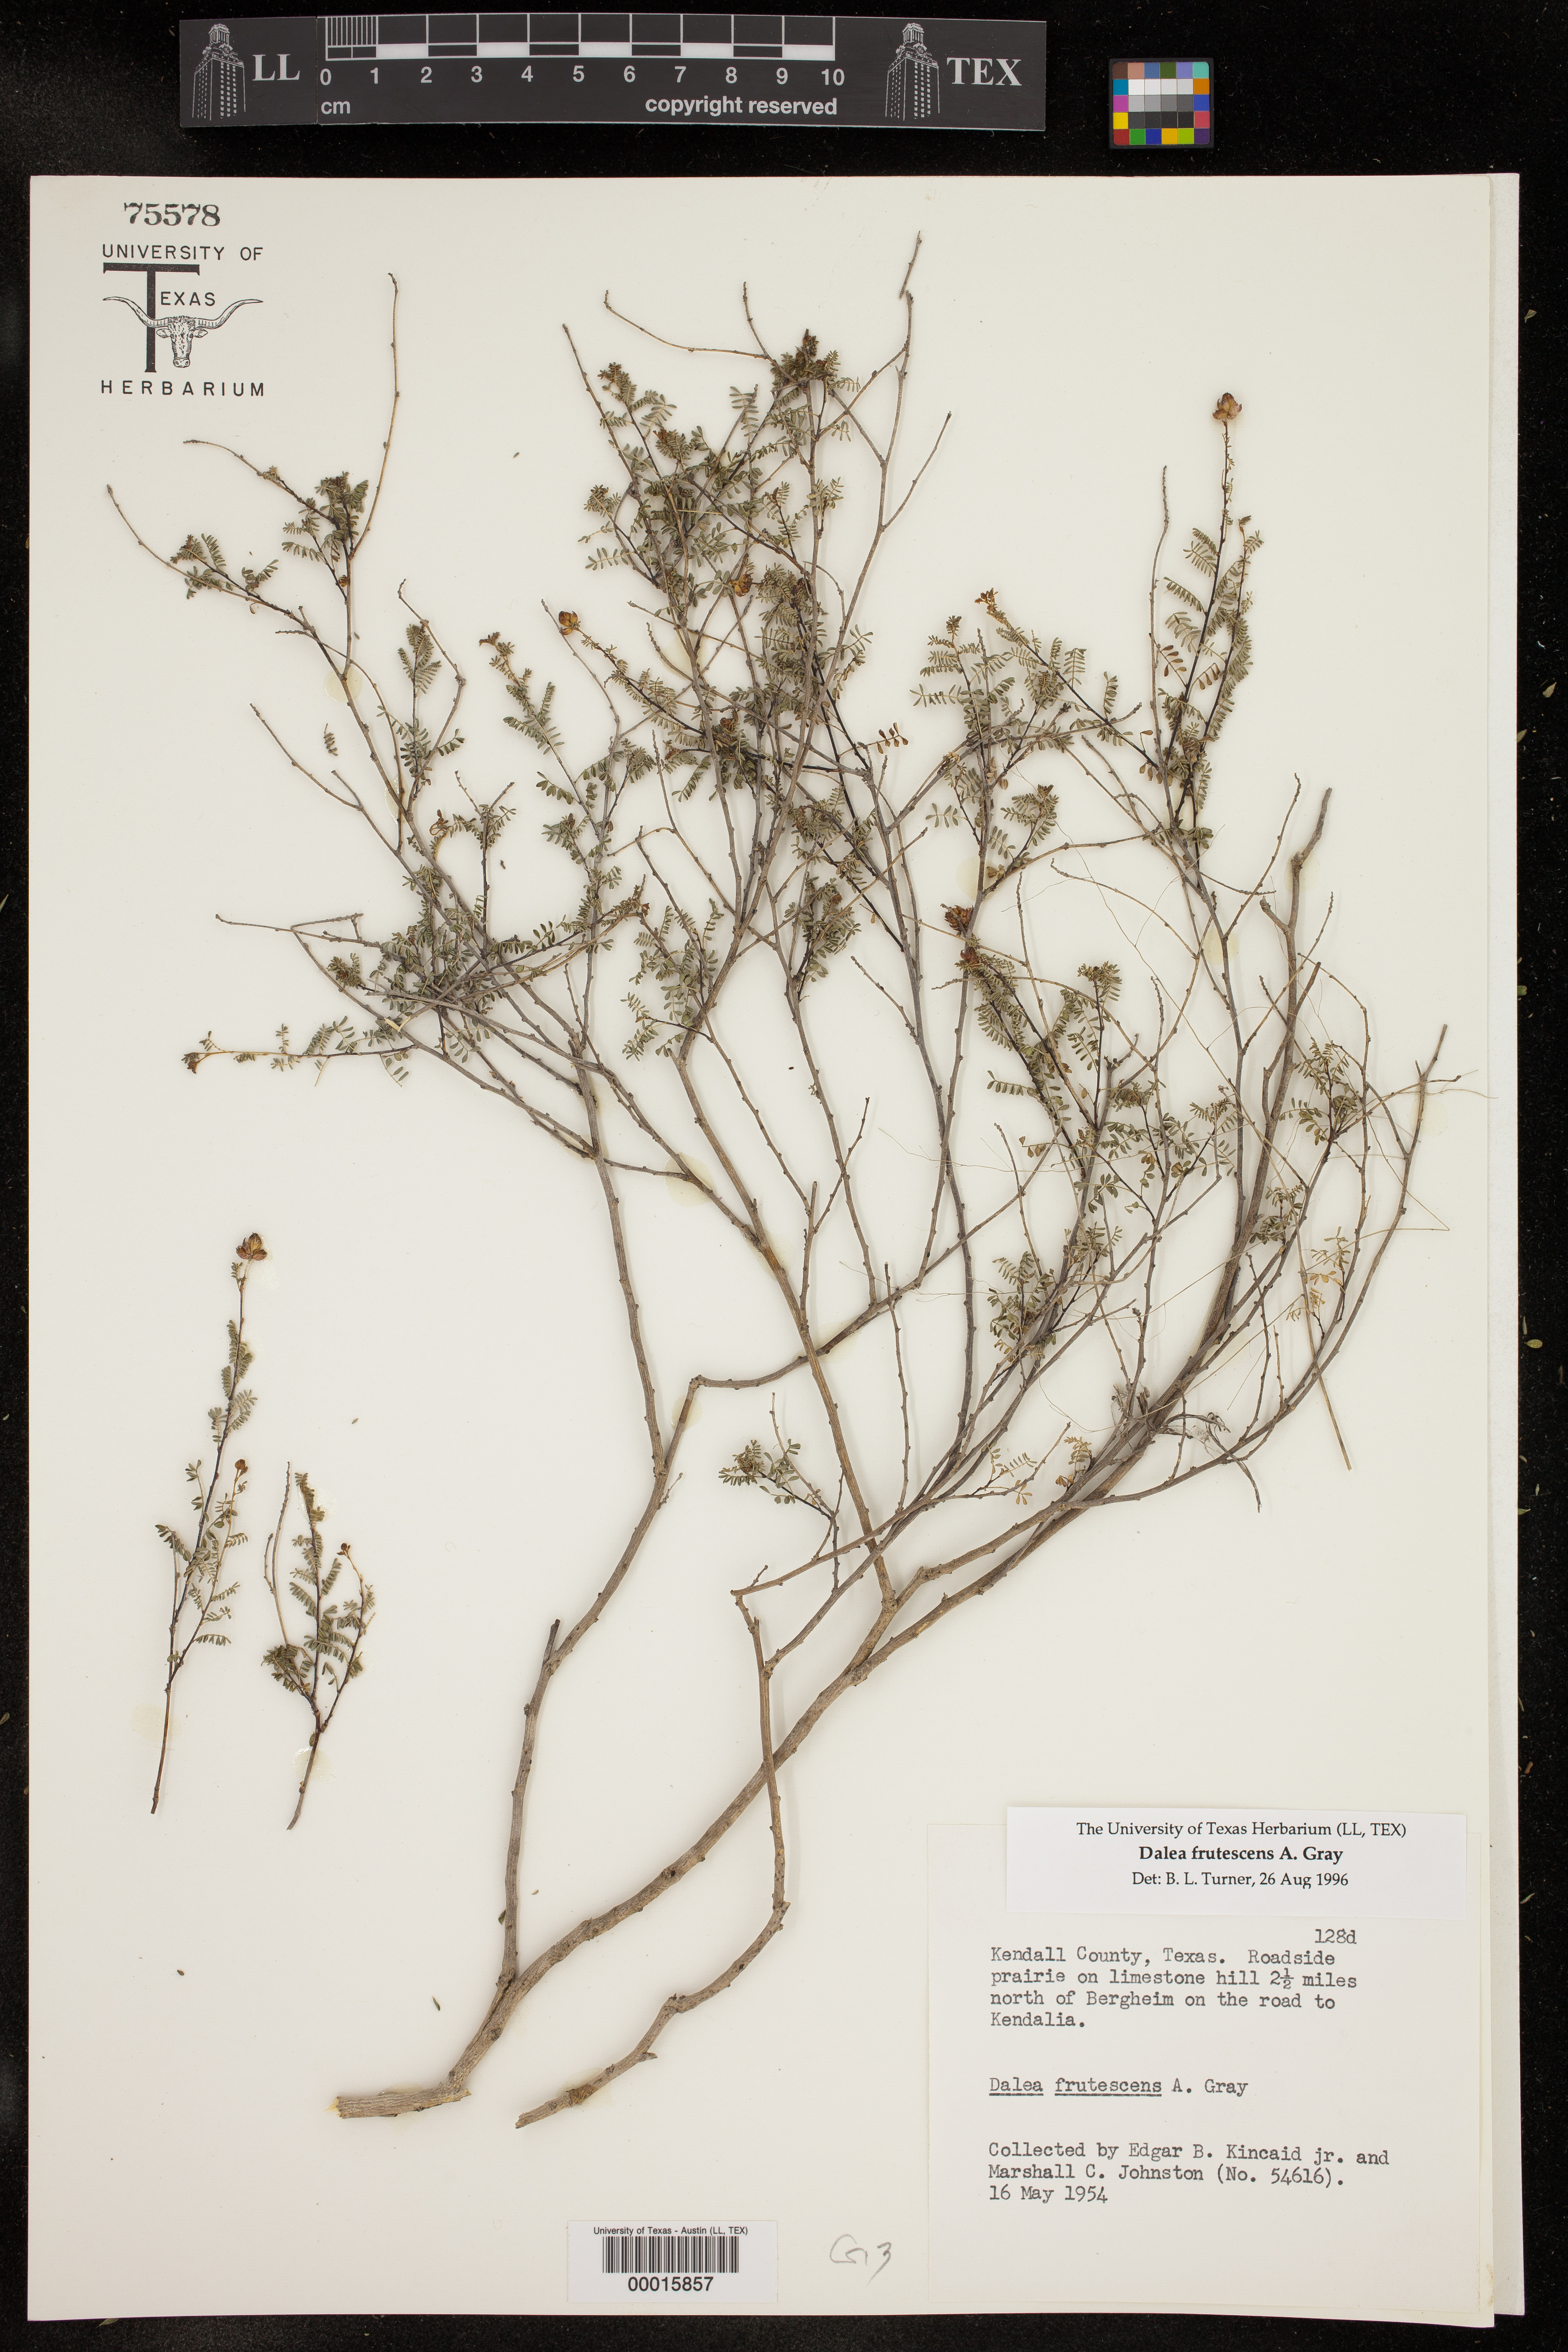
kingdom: Plantae
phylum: Tracheophyta
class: Magnoliopsida
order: Fabales
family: Fabaceae
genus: Dalea
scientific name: Dalea frutescens
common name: Black dalea
